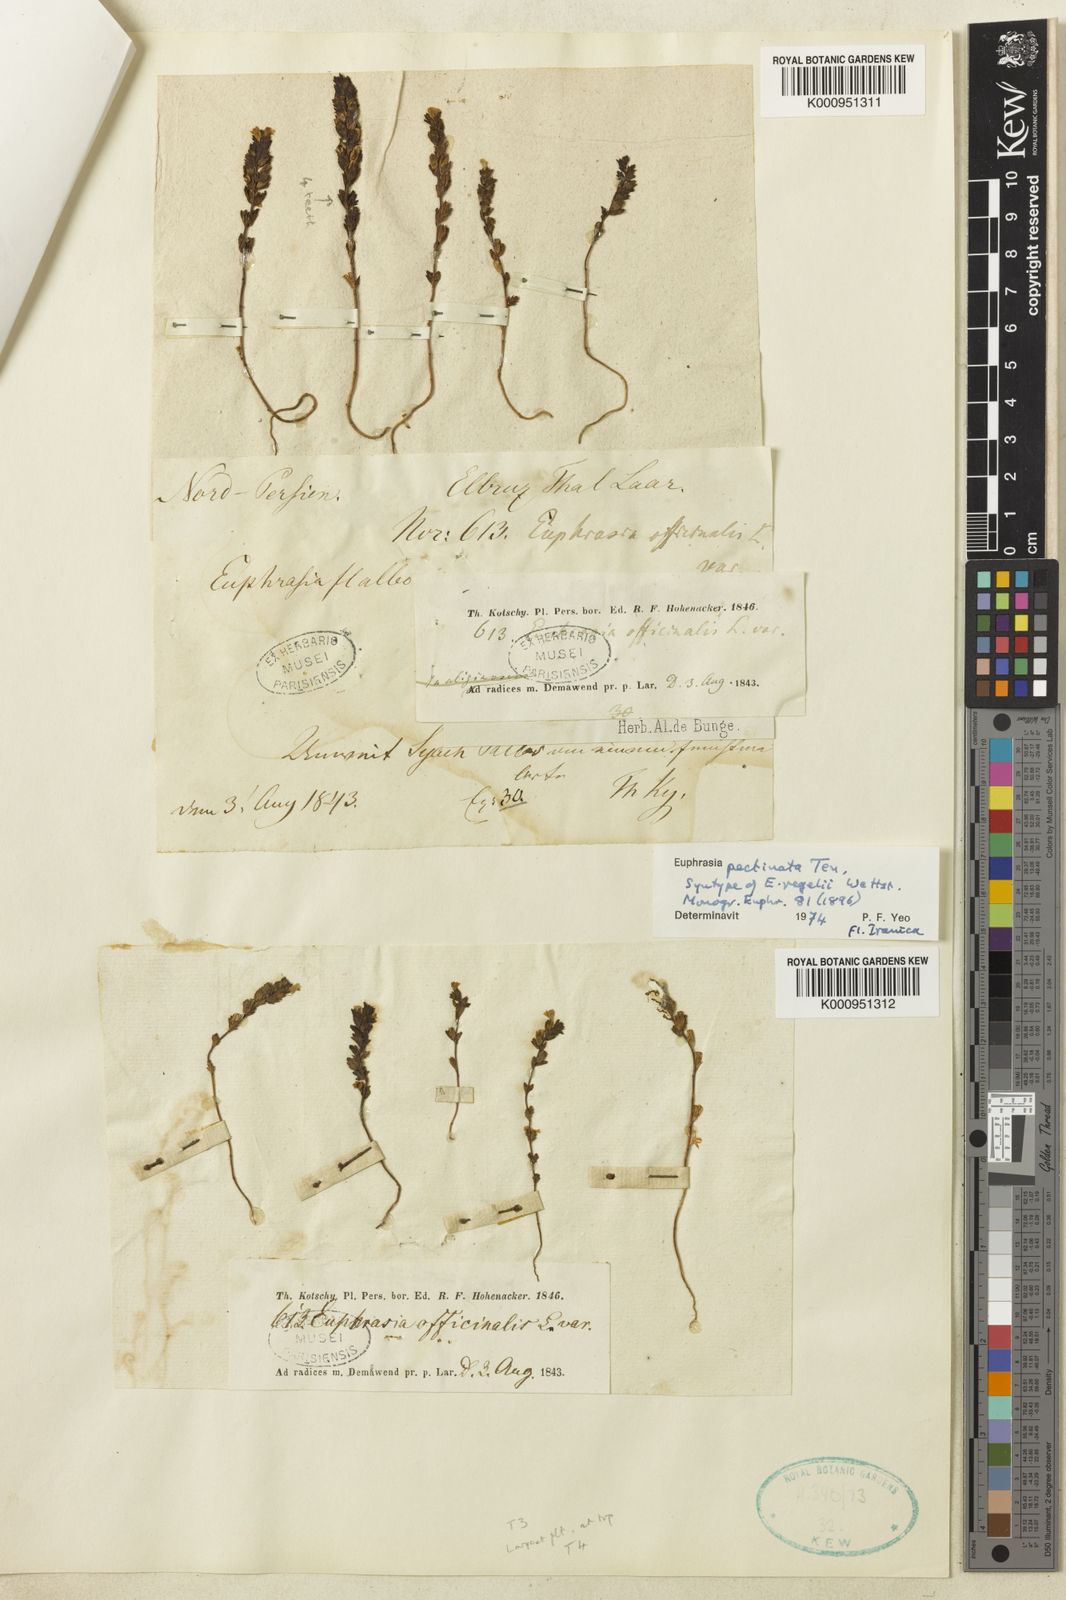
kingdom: Plantae
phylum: Tracheophyta
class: Magnoliopsida
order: Lamiales
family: Orobanchaceae
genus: Euphrasia
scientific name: Euphrasia pectinata
